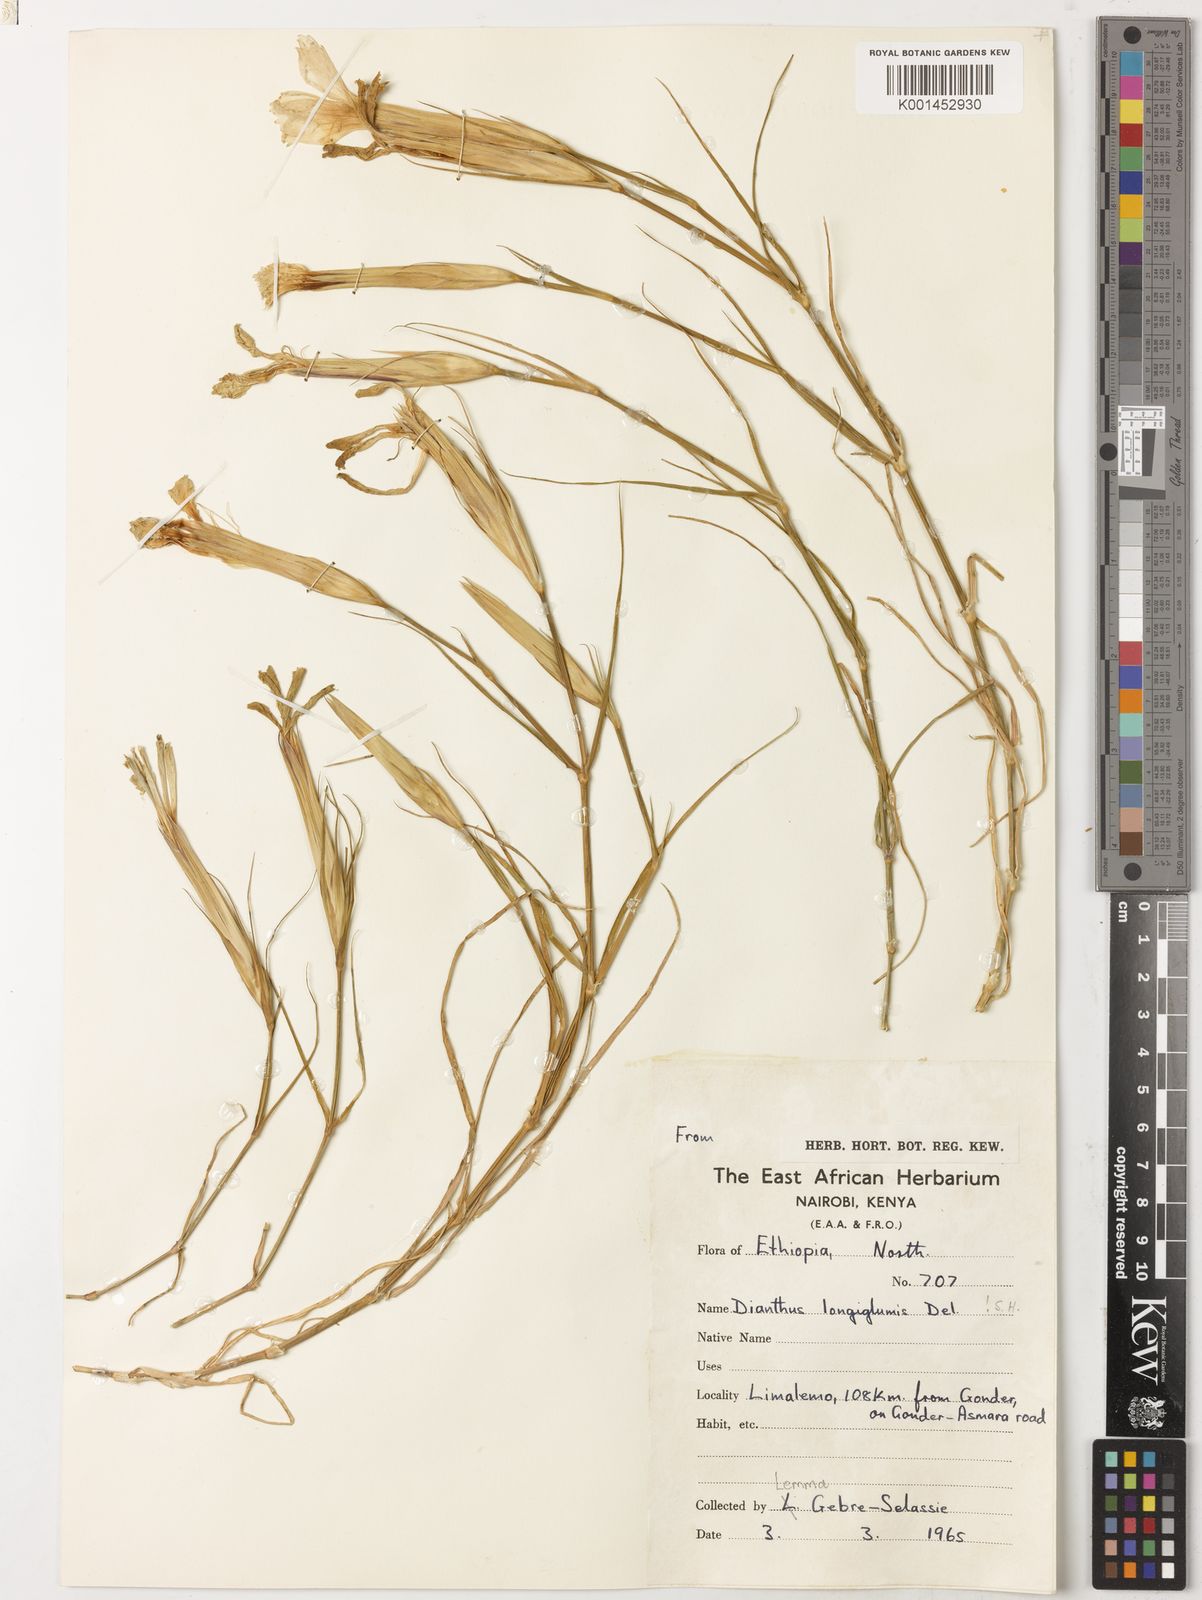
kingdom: Plantae
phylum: Tracheophyta
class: Magnoliopsida
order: Caryophyllales
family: Caryophyllaceae
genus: Dianthus
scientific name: Dianthus longiglumis
